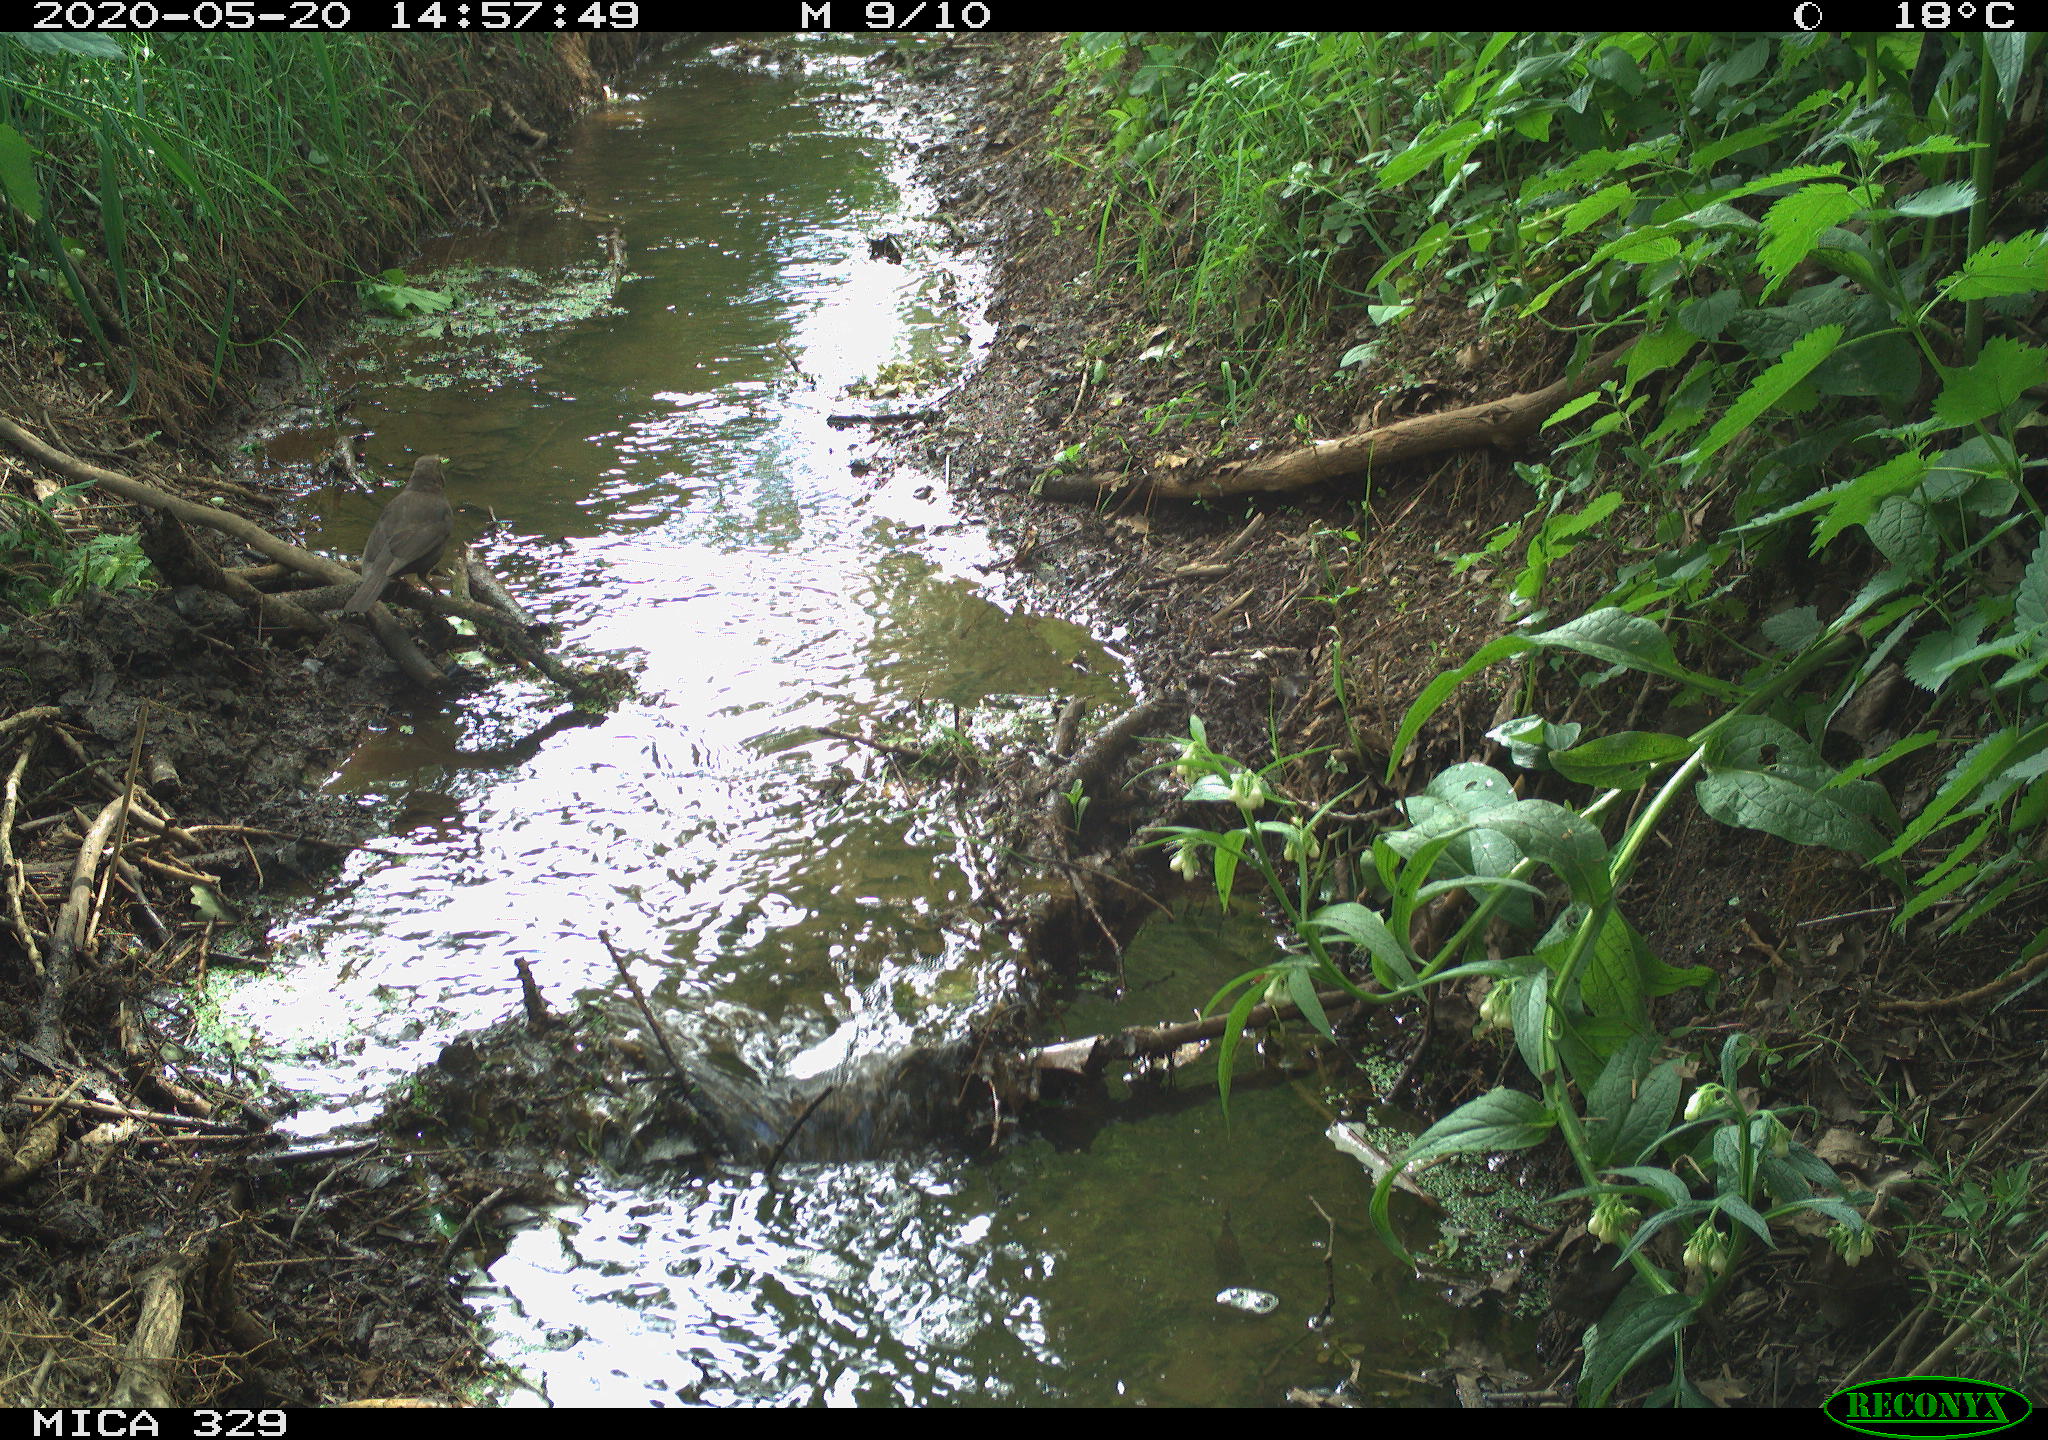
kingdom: Animalia
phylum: Chordata
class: Aves
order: Passeriformes
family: Turdidae
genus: Turdus
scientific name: Turdus merula
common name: Common blackbird
